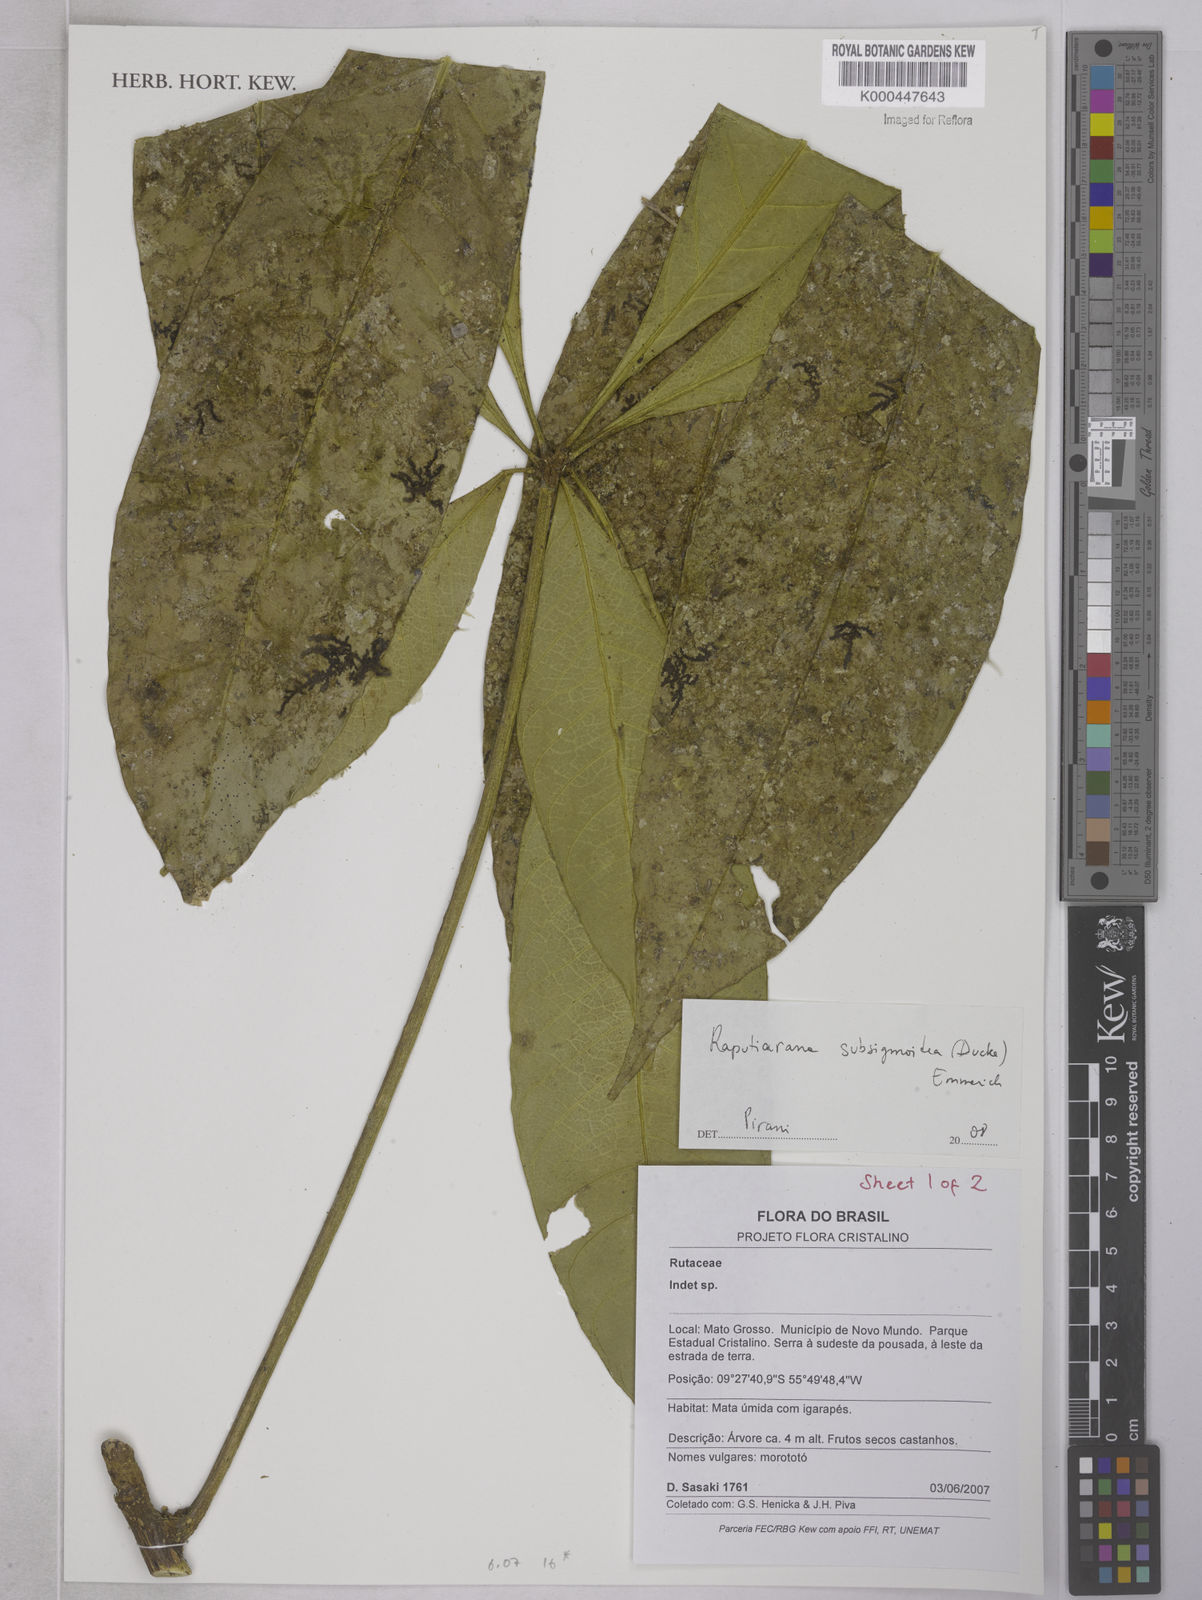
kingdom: Plantae
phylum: Tracheophyta
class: Magnoliopsida
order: Sapindales
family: Rutaceae
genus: Raputiarana
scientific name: Raputiarana subsigmoidea
